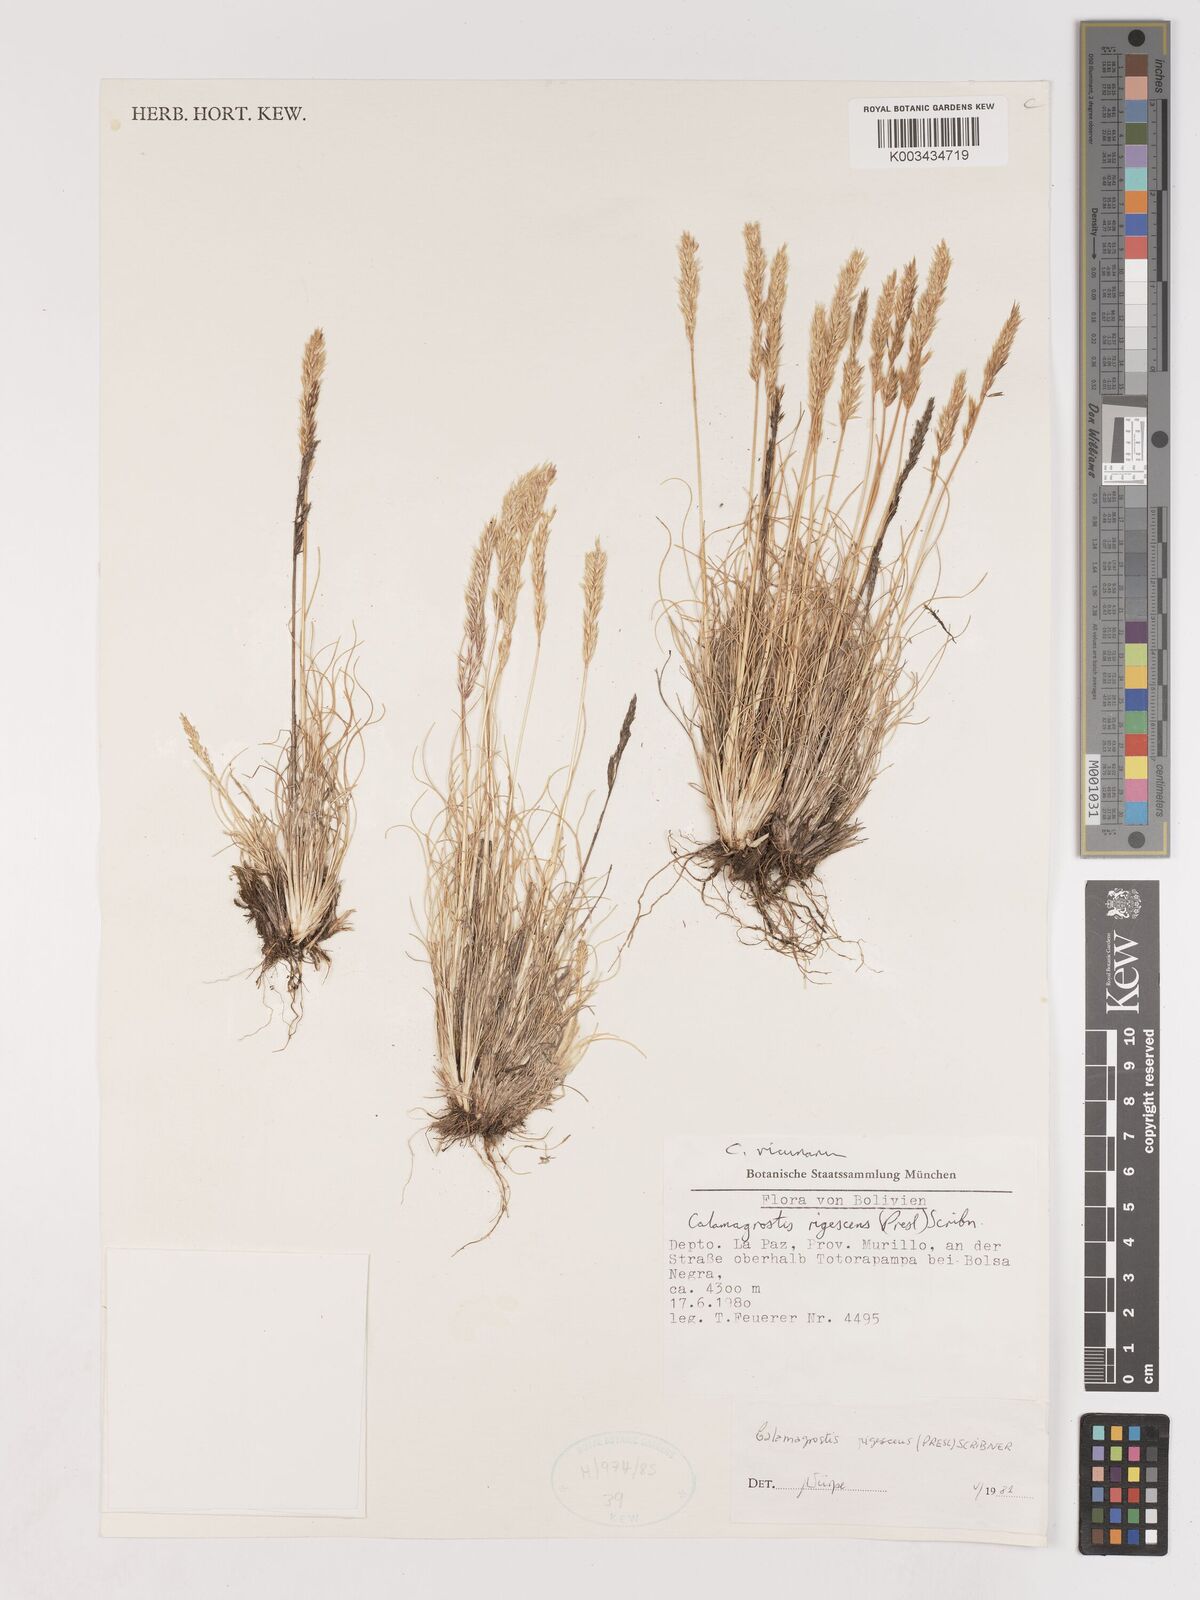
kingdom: Plantae
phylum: Tracheophyta
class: Liliopsida
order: Poales
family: Poaceae
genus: Cinnagrostis
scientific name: Cinnagrostis vicunarum
